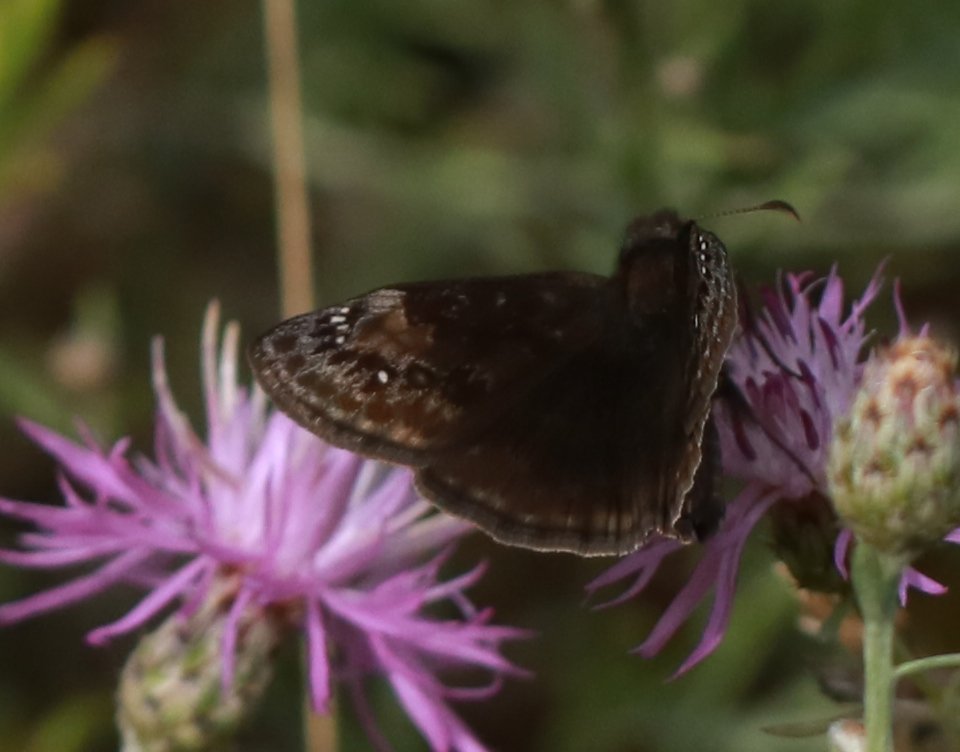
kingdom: Animalia
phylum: Arthropoda
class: Insecta
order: Lepidoptera
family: Hesperiidae
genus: Gesta
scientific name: Gesta
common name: Wild Indigo Duskywing
